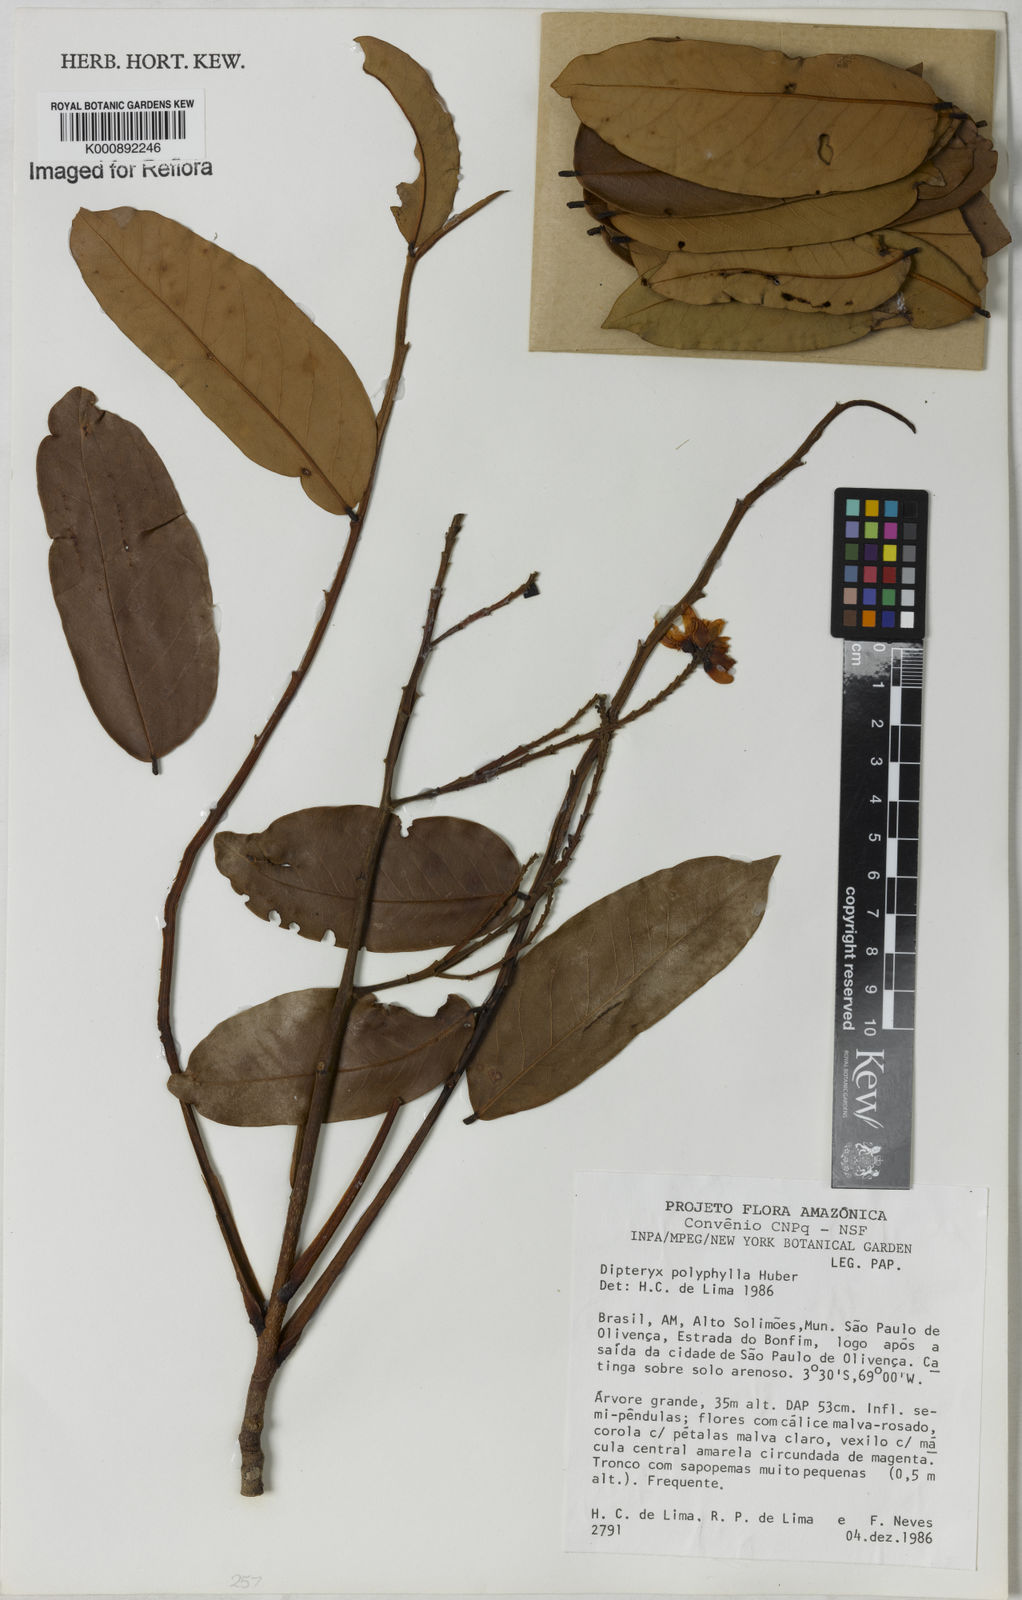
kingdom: Plantae
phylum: Tracheophyta
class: Magnoliopsida
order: Fabales
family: Fabaceae
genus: Dipteryx
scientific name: Dipteryx polyphylla
